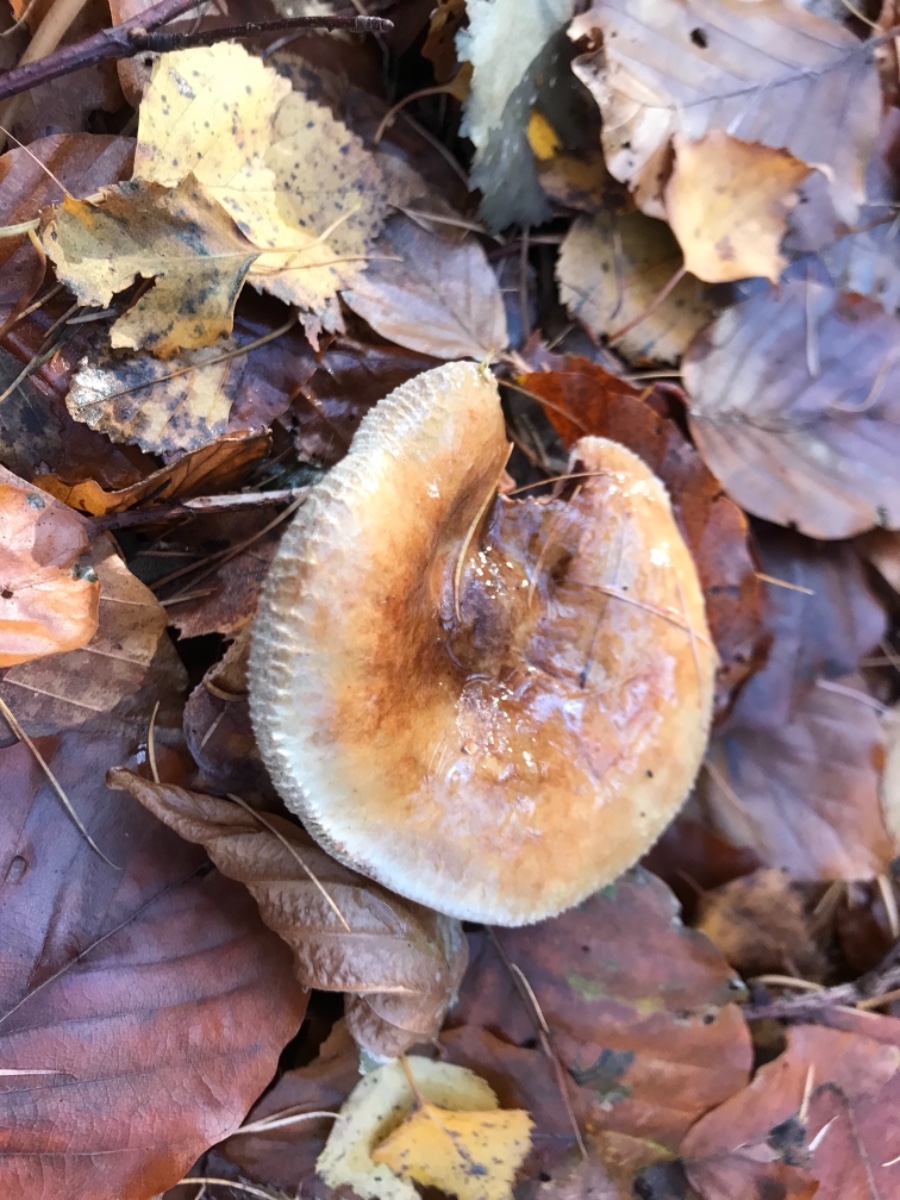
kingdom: Fungi
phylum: Basidiomycota
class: Agaricomycetes
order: Boletales
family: Paxillaceae
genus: Paxillus
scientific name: Paxillus involutus
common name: almindelig netbladhat
